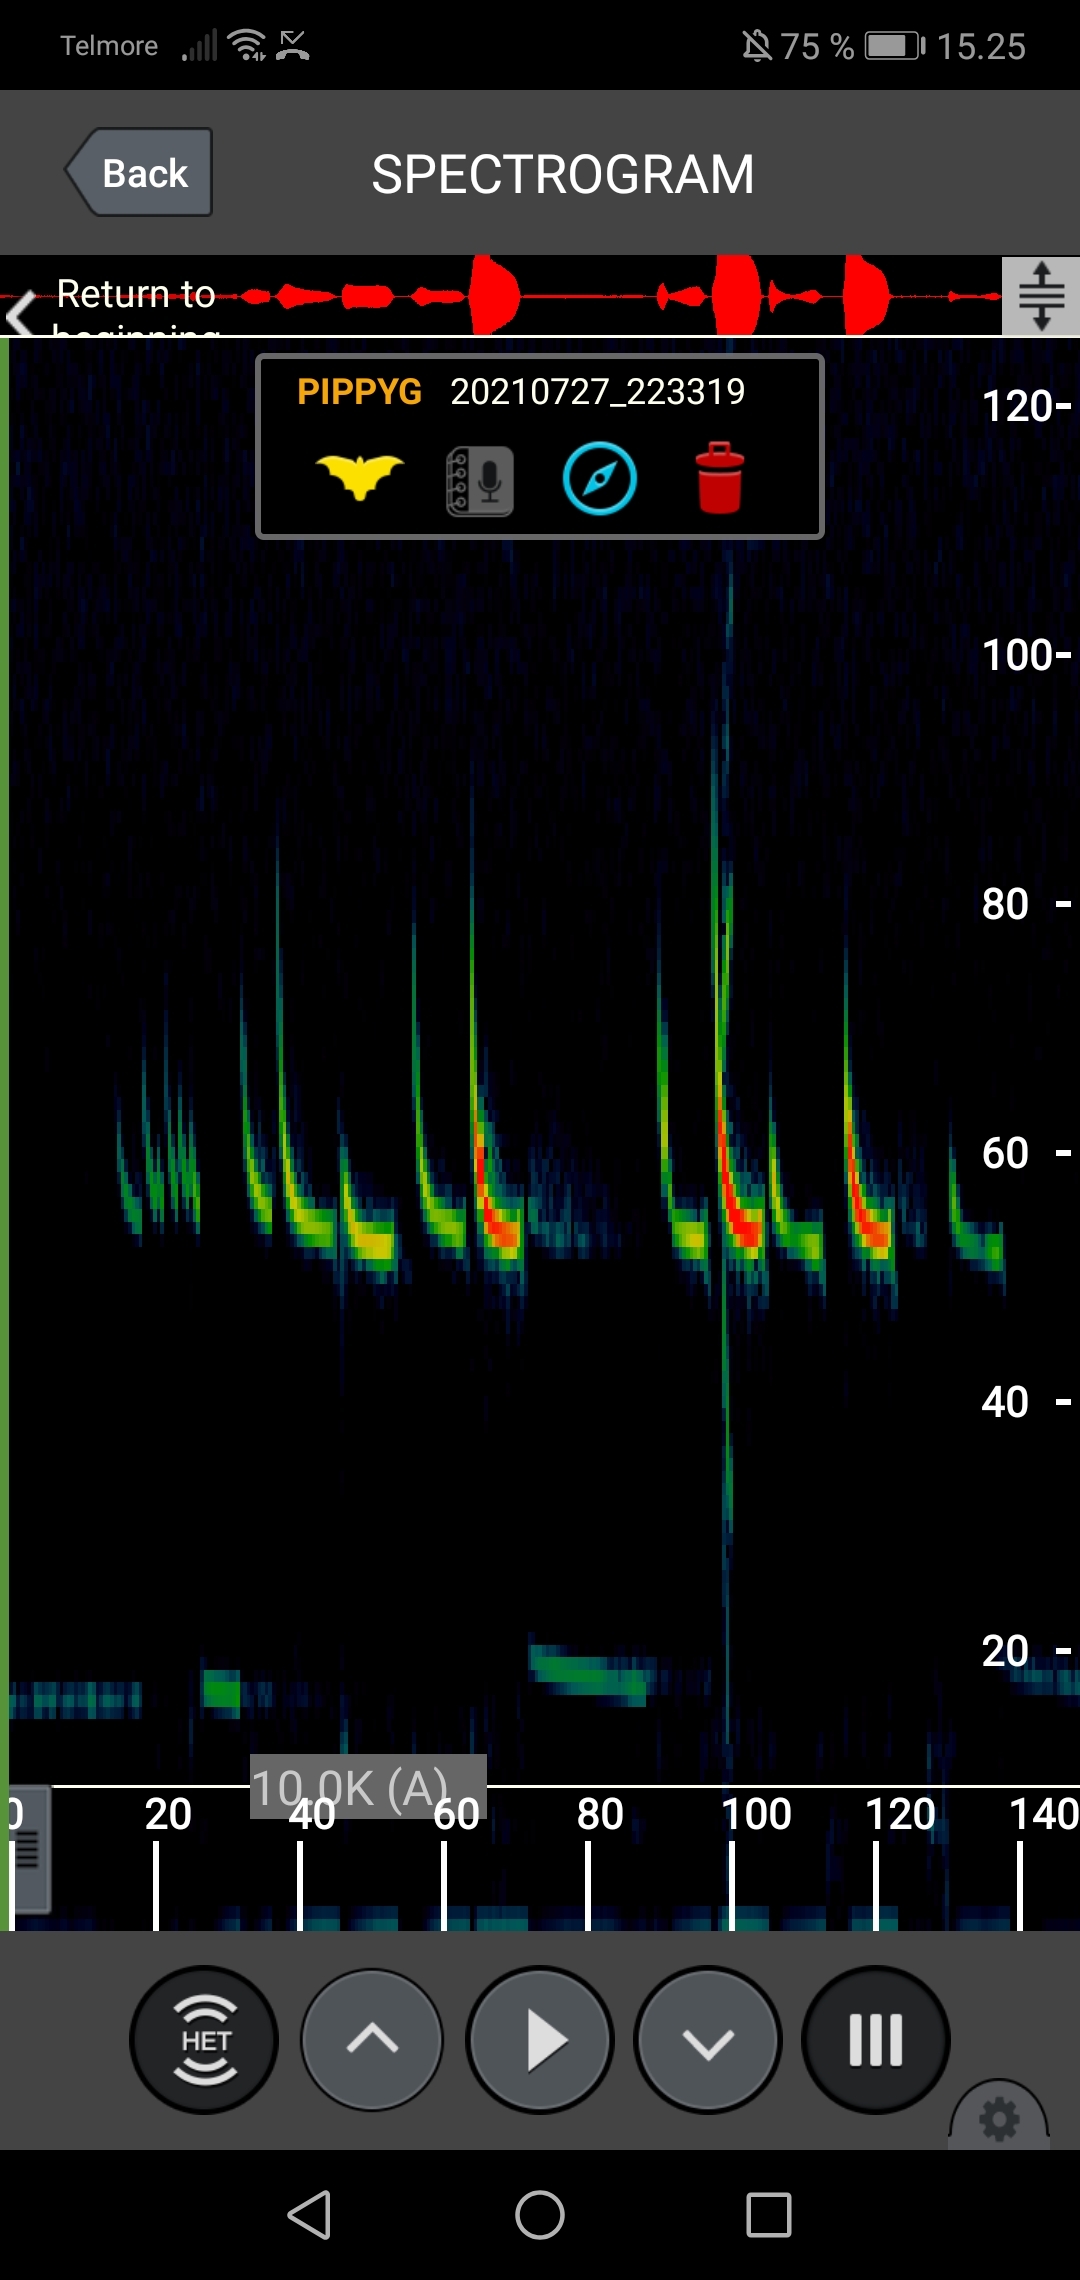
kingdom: Animalia
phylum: Chordata
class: Mammalia
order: Chiroptera
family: Vespertilionidae
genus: Pipistrellus
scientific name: Pipistrellus pygmaeus
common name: Dværgflagermus
